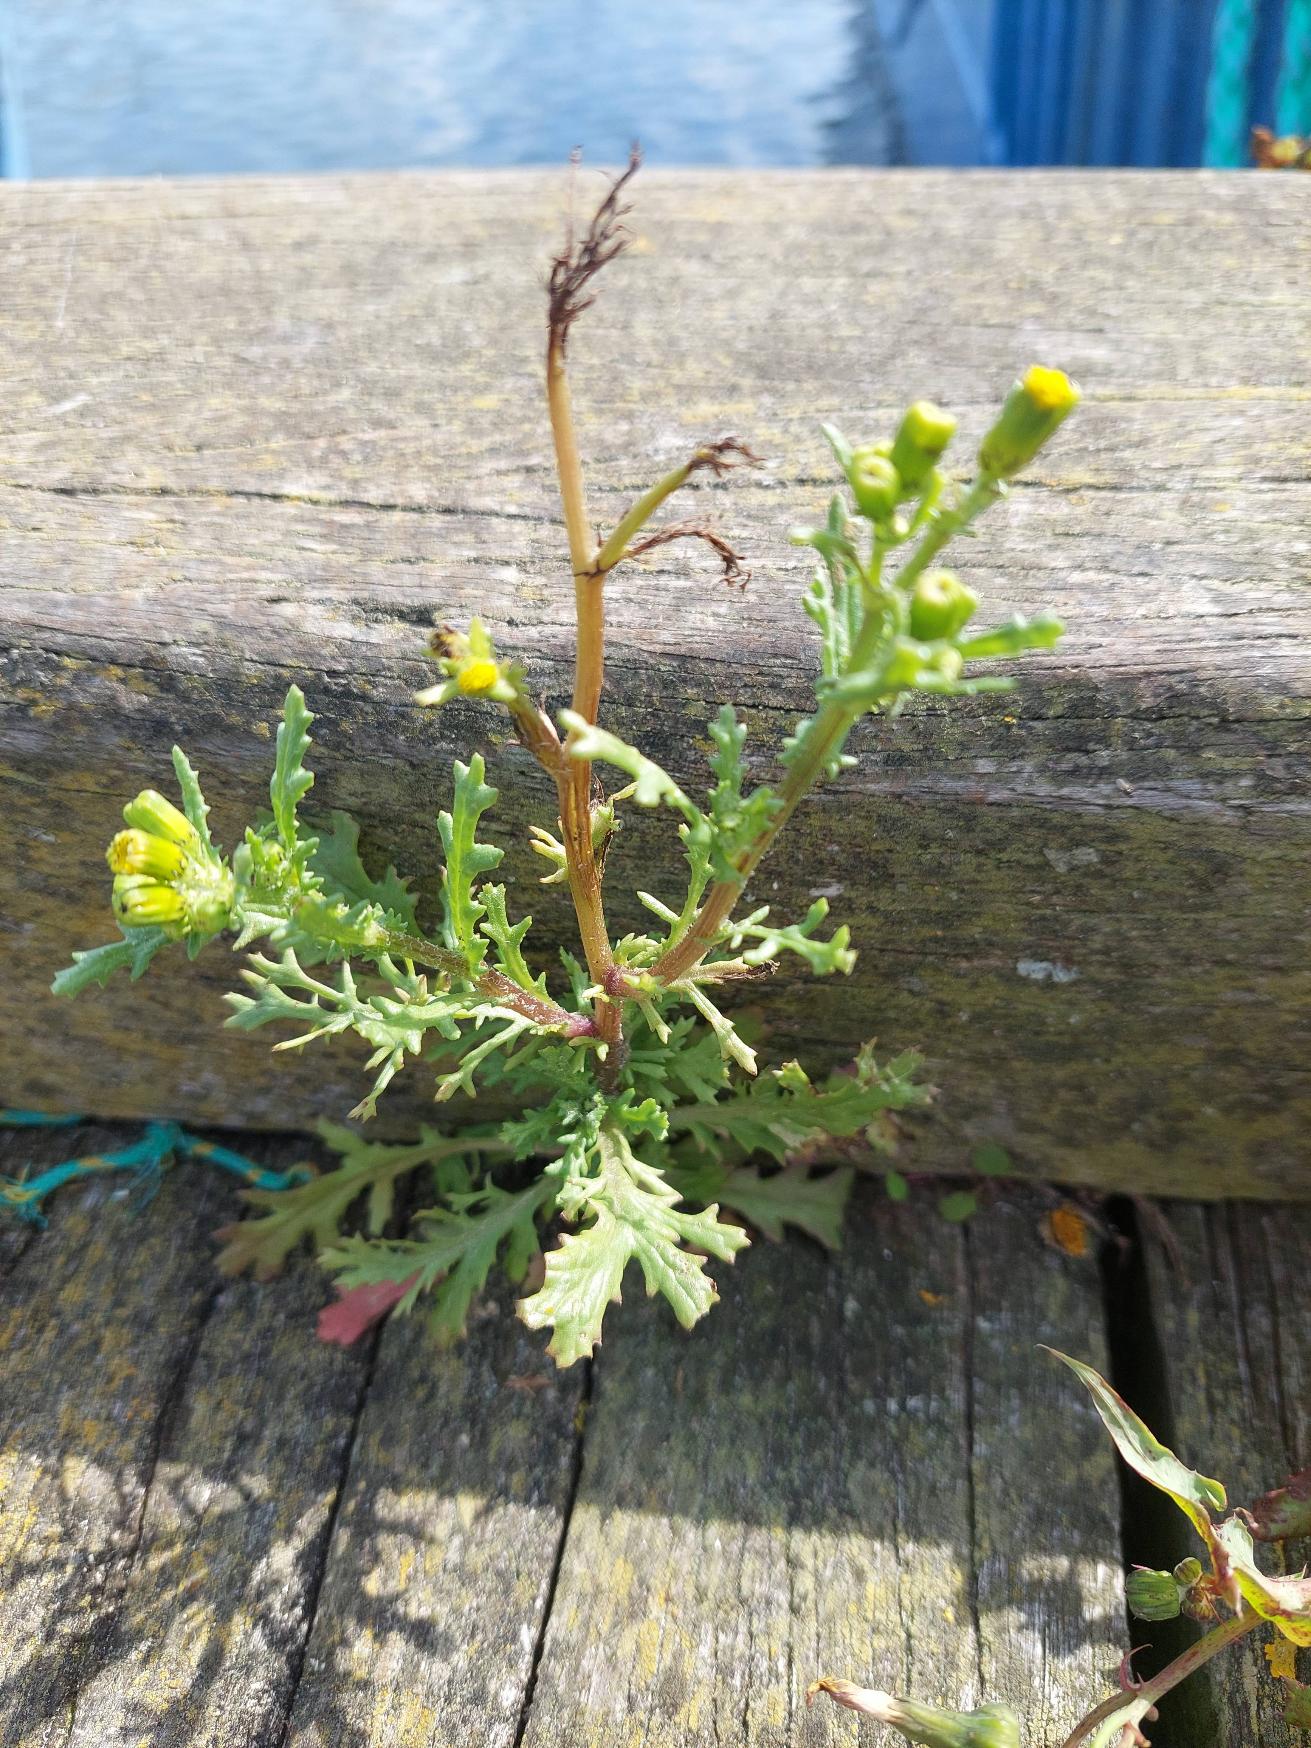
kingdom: Plantae
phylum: Tracheophyta
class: Magnoliopsida
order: Asterales
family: Asteraceae
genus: Senecio
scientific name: Senecio vulgaris
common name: Almindelig brandbæger
